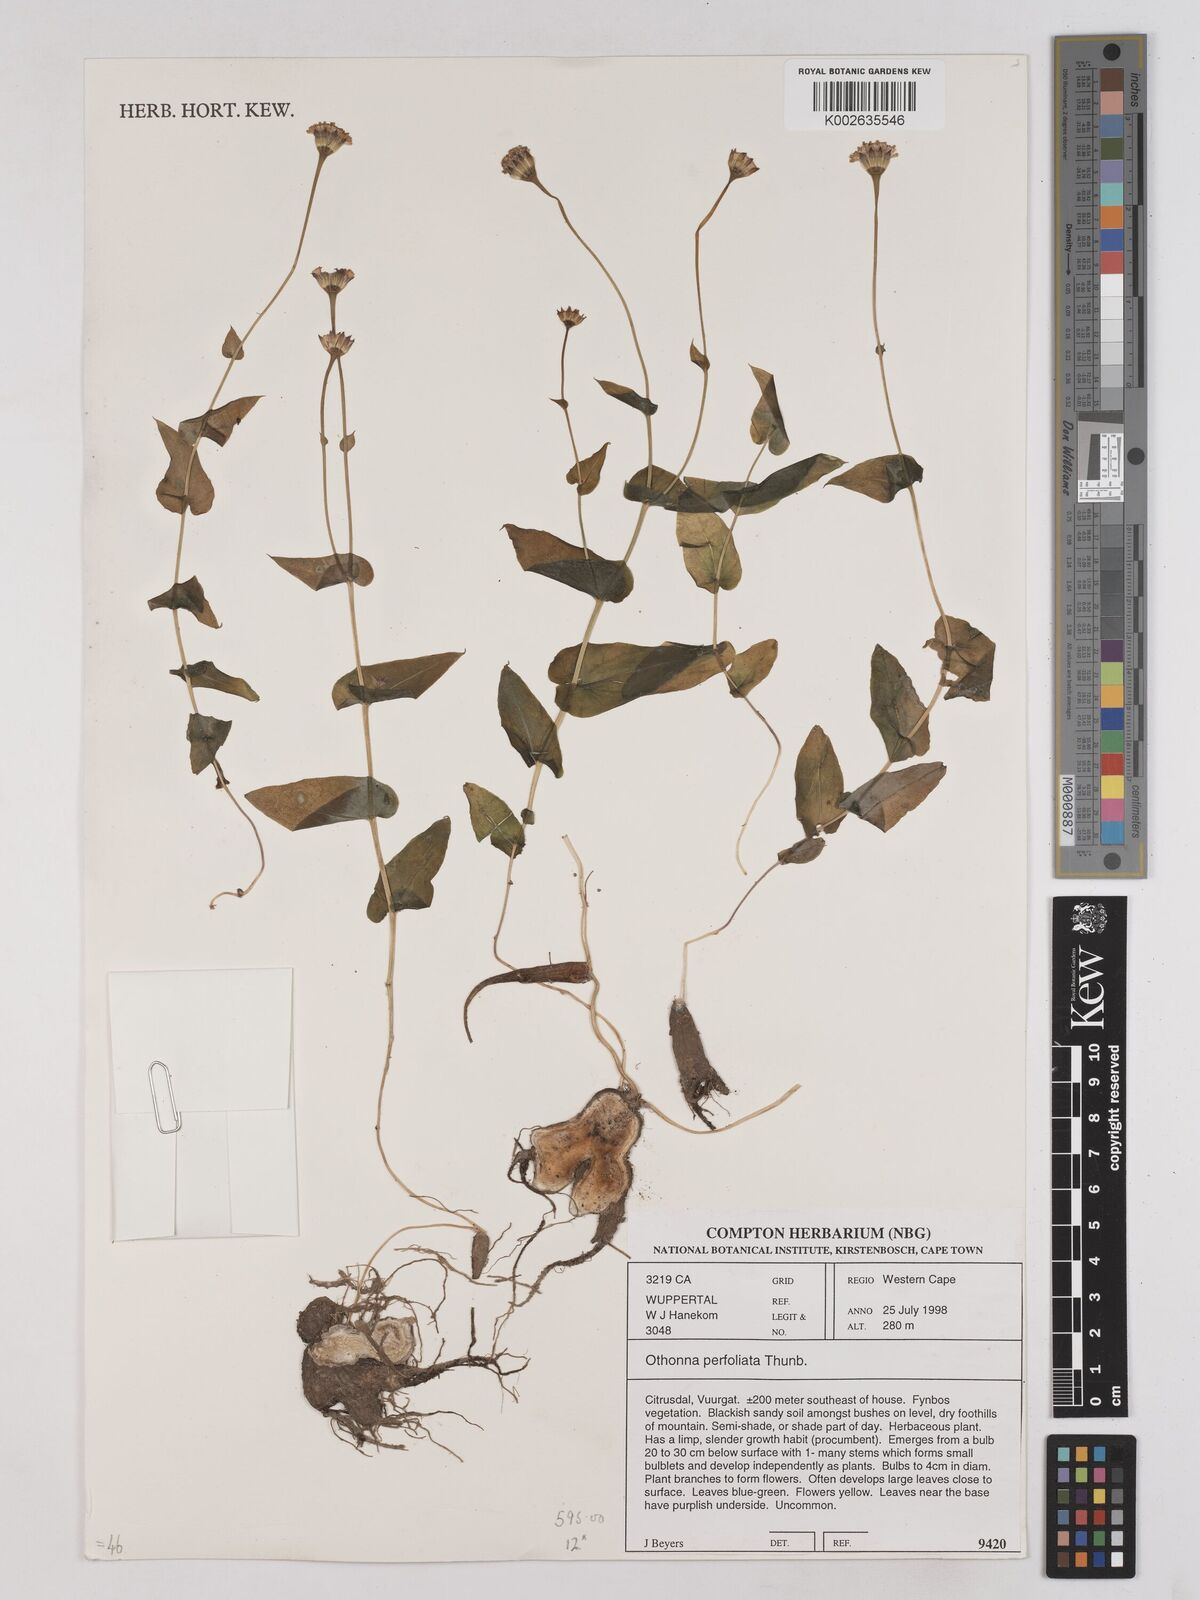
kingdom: Plantae
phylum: Tracheophyta
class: Magnoliopsida
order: Asterales
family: Asteraceae
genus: Othonna
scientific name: Othonna perfoliata
